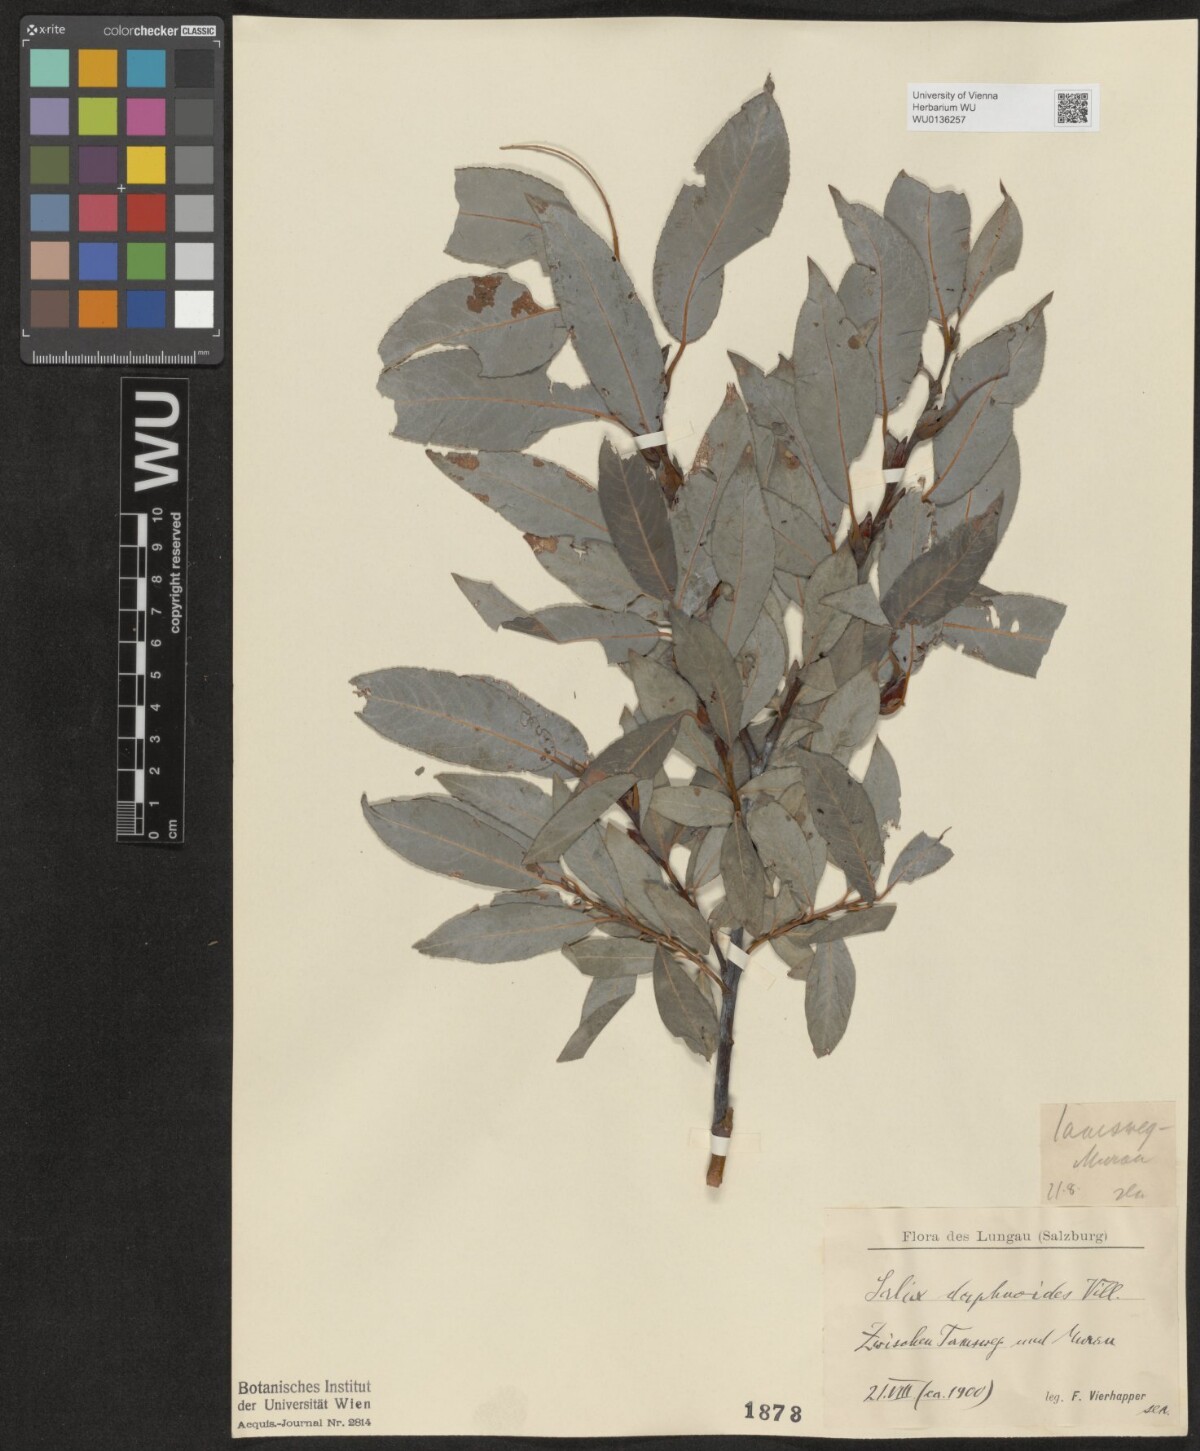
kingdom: Plantae
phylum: Tracheophyta
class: Magnoliopsida
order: Malpighiales
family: Salicaceae
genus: Salix
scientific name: Salix daphnoides
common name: European violet-willow
